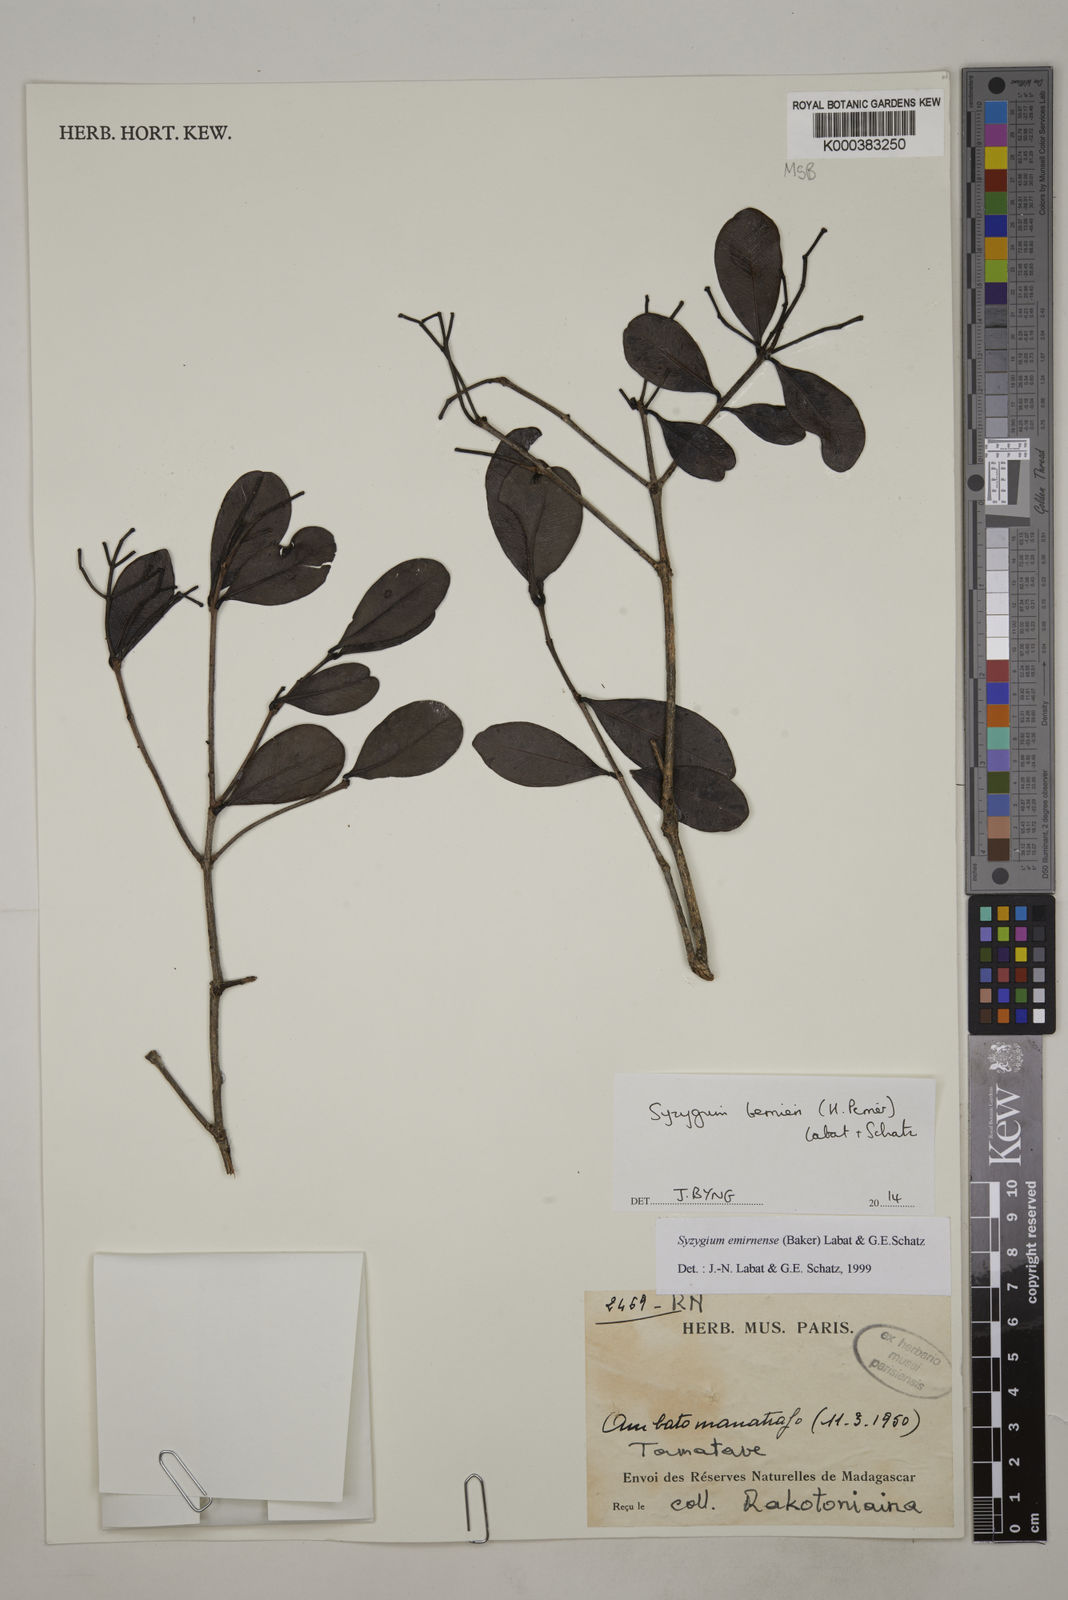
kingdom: Plantae
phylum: Tracheophyta
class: Magnoliopsida
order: Myrtales
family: Myrtaceae
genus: Syzygium
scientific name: Syzygium emirnense
